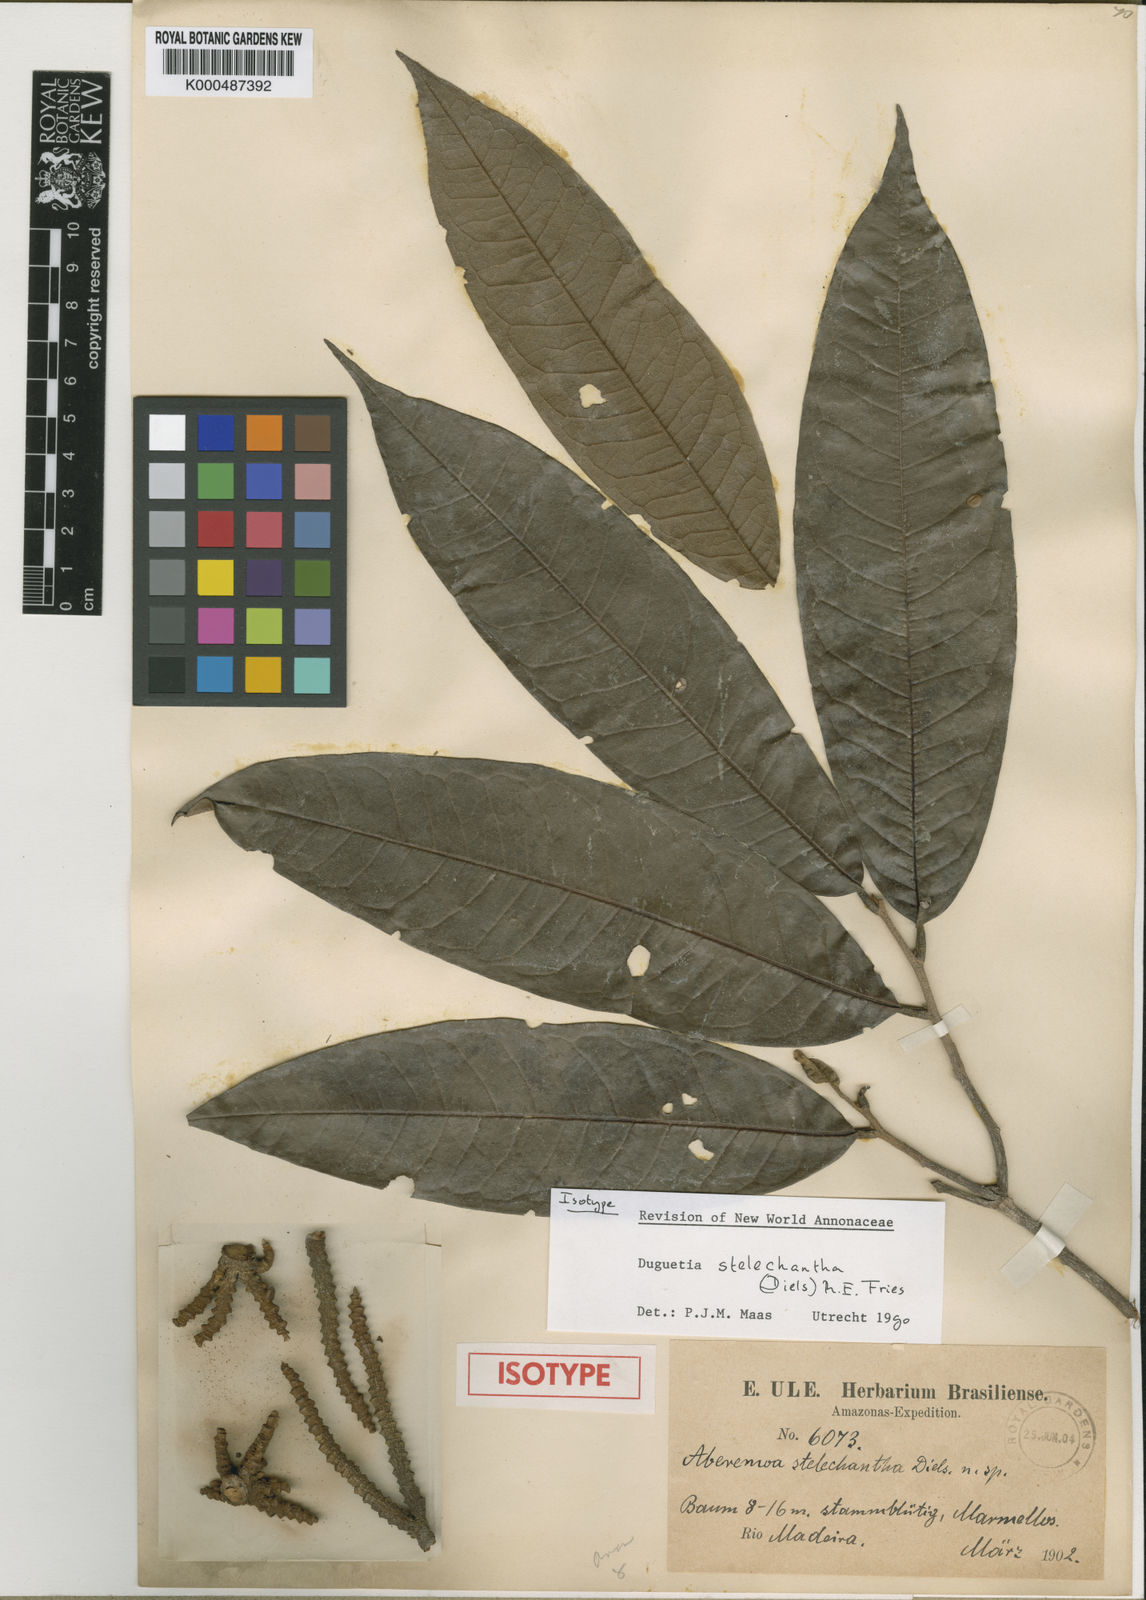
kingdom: Plantae
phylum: Tracheophyta
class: Magnoliopsida
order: Magnoliales
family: Annonaceae
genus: Duguetia
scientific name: Duguetia stelechantha
